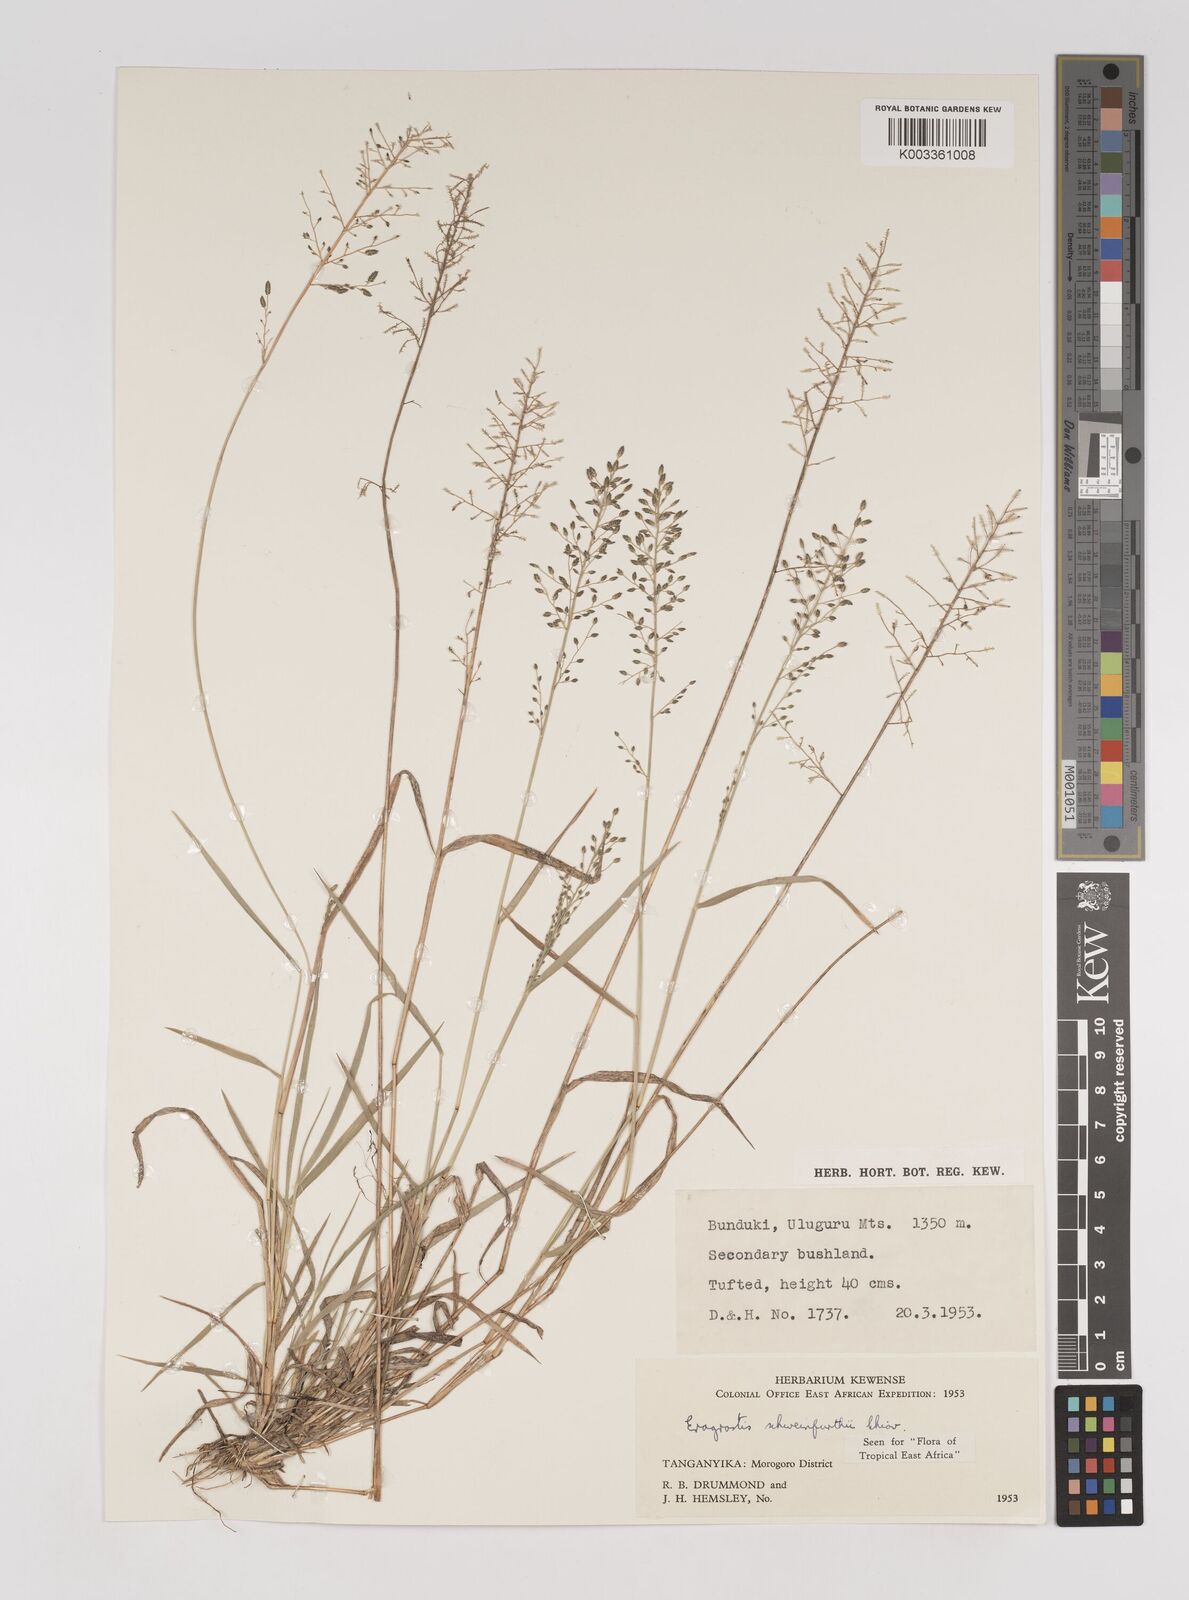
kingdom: Plantae
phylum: Tracheophyta
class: Liliopsida
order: Poales
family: Poaceae
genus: Eragrostis
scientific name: Eragrostis schweinfurthii
